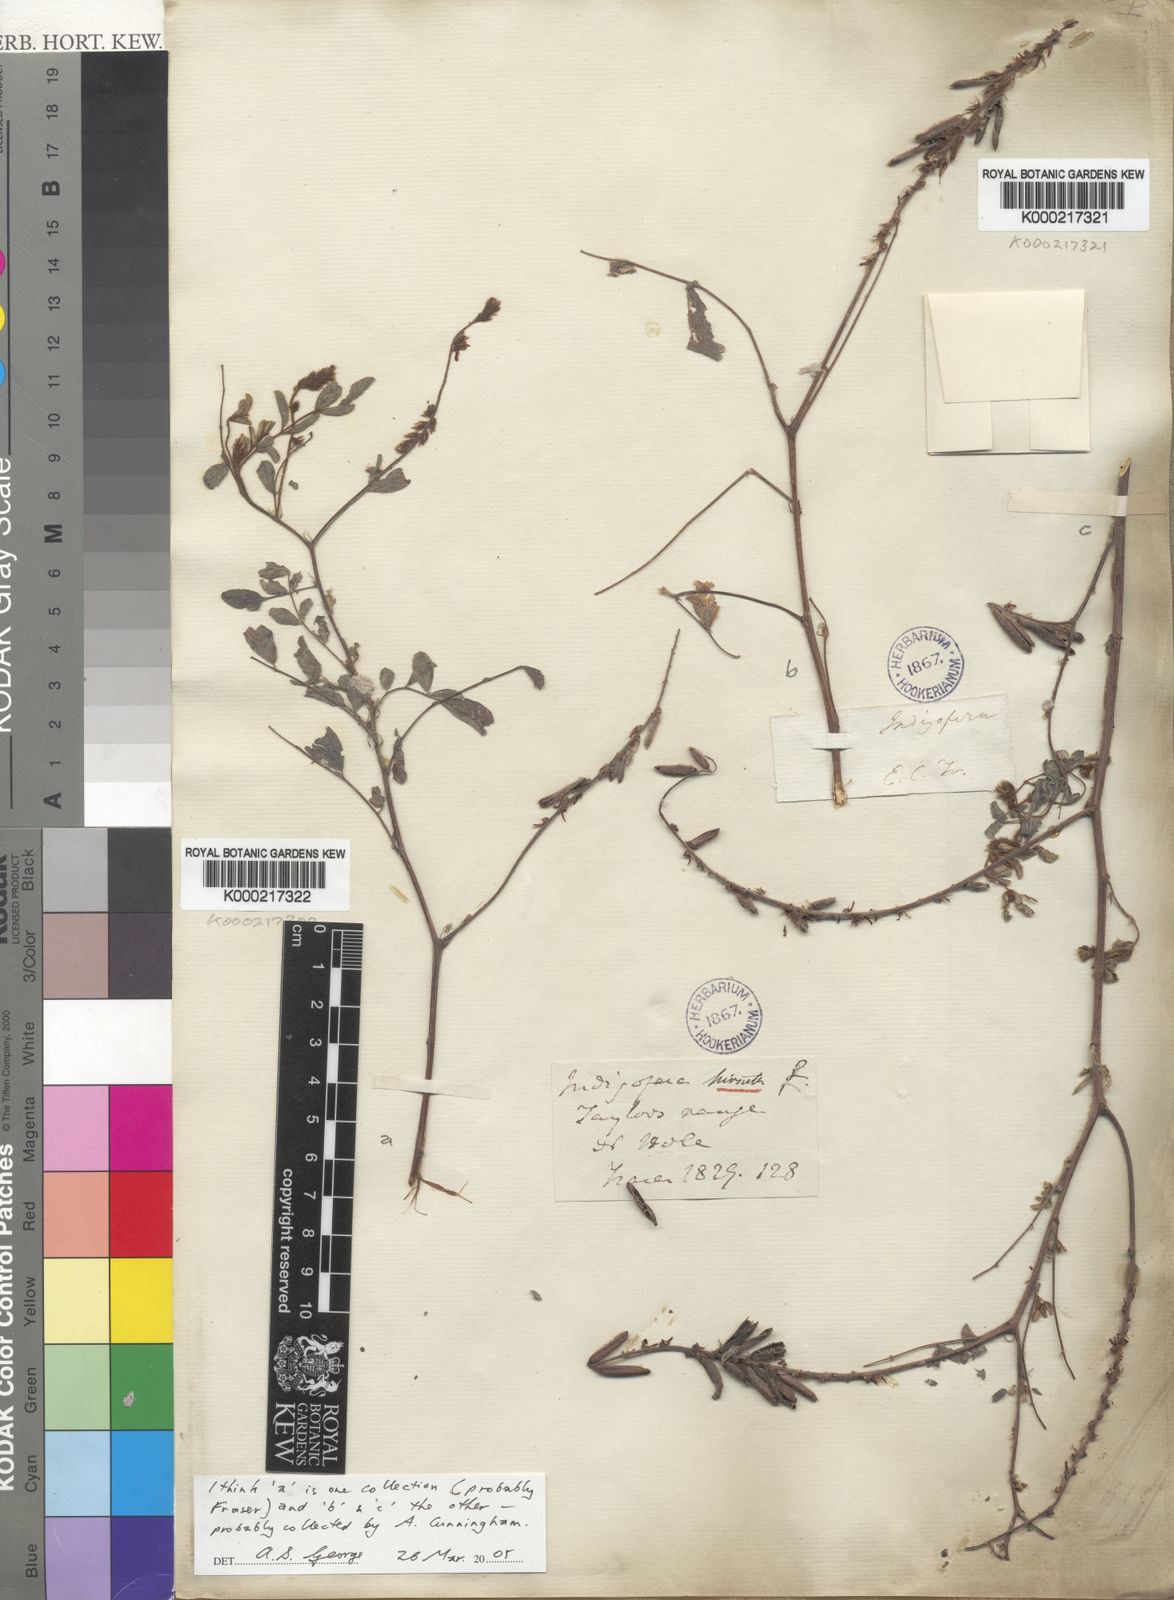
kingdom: Plantae
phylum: Tracheophyta
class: Magnoliopsida
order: Fabales
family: Fabaceae
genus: Indigofera
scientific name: Indigofera hirsuta
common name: Hairy indigo
